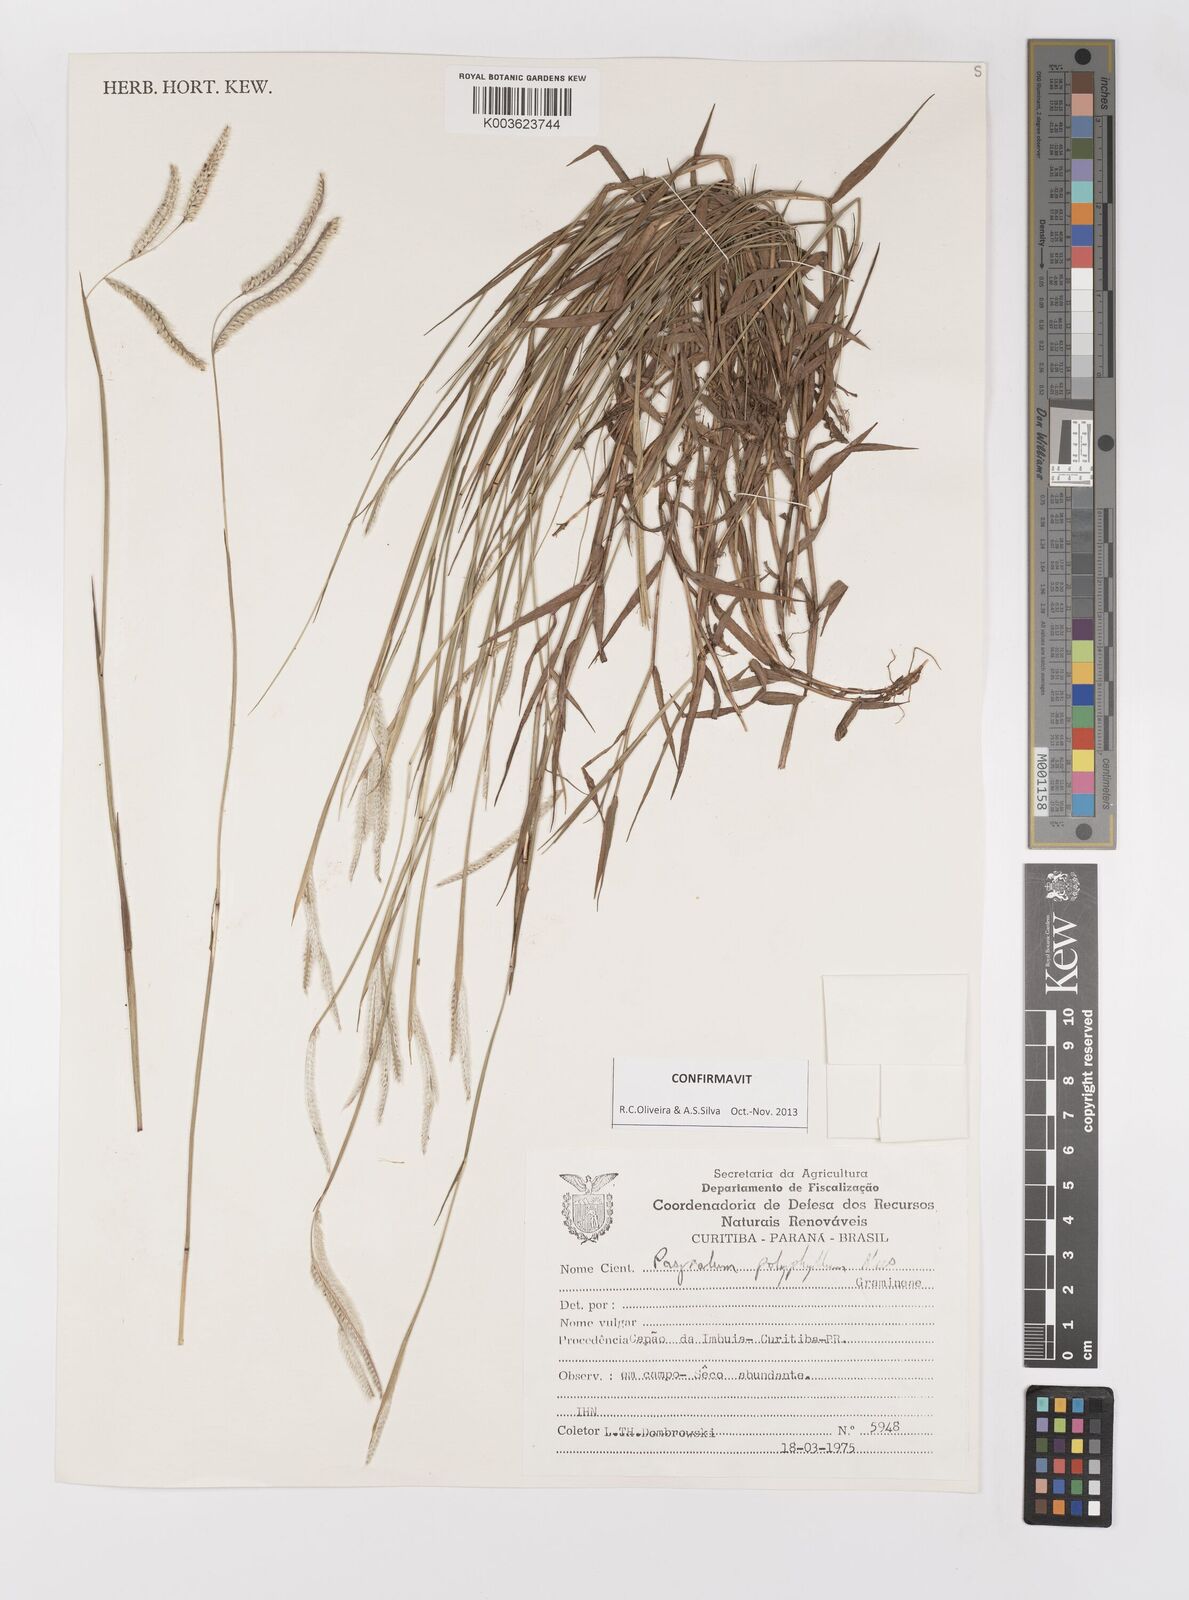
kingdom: Plantae
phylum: Tracheophyta
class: Liliopsida
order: Poales
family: Poaceae
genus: Paspalum
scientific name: Paspalum polyphyllum
